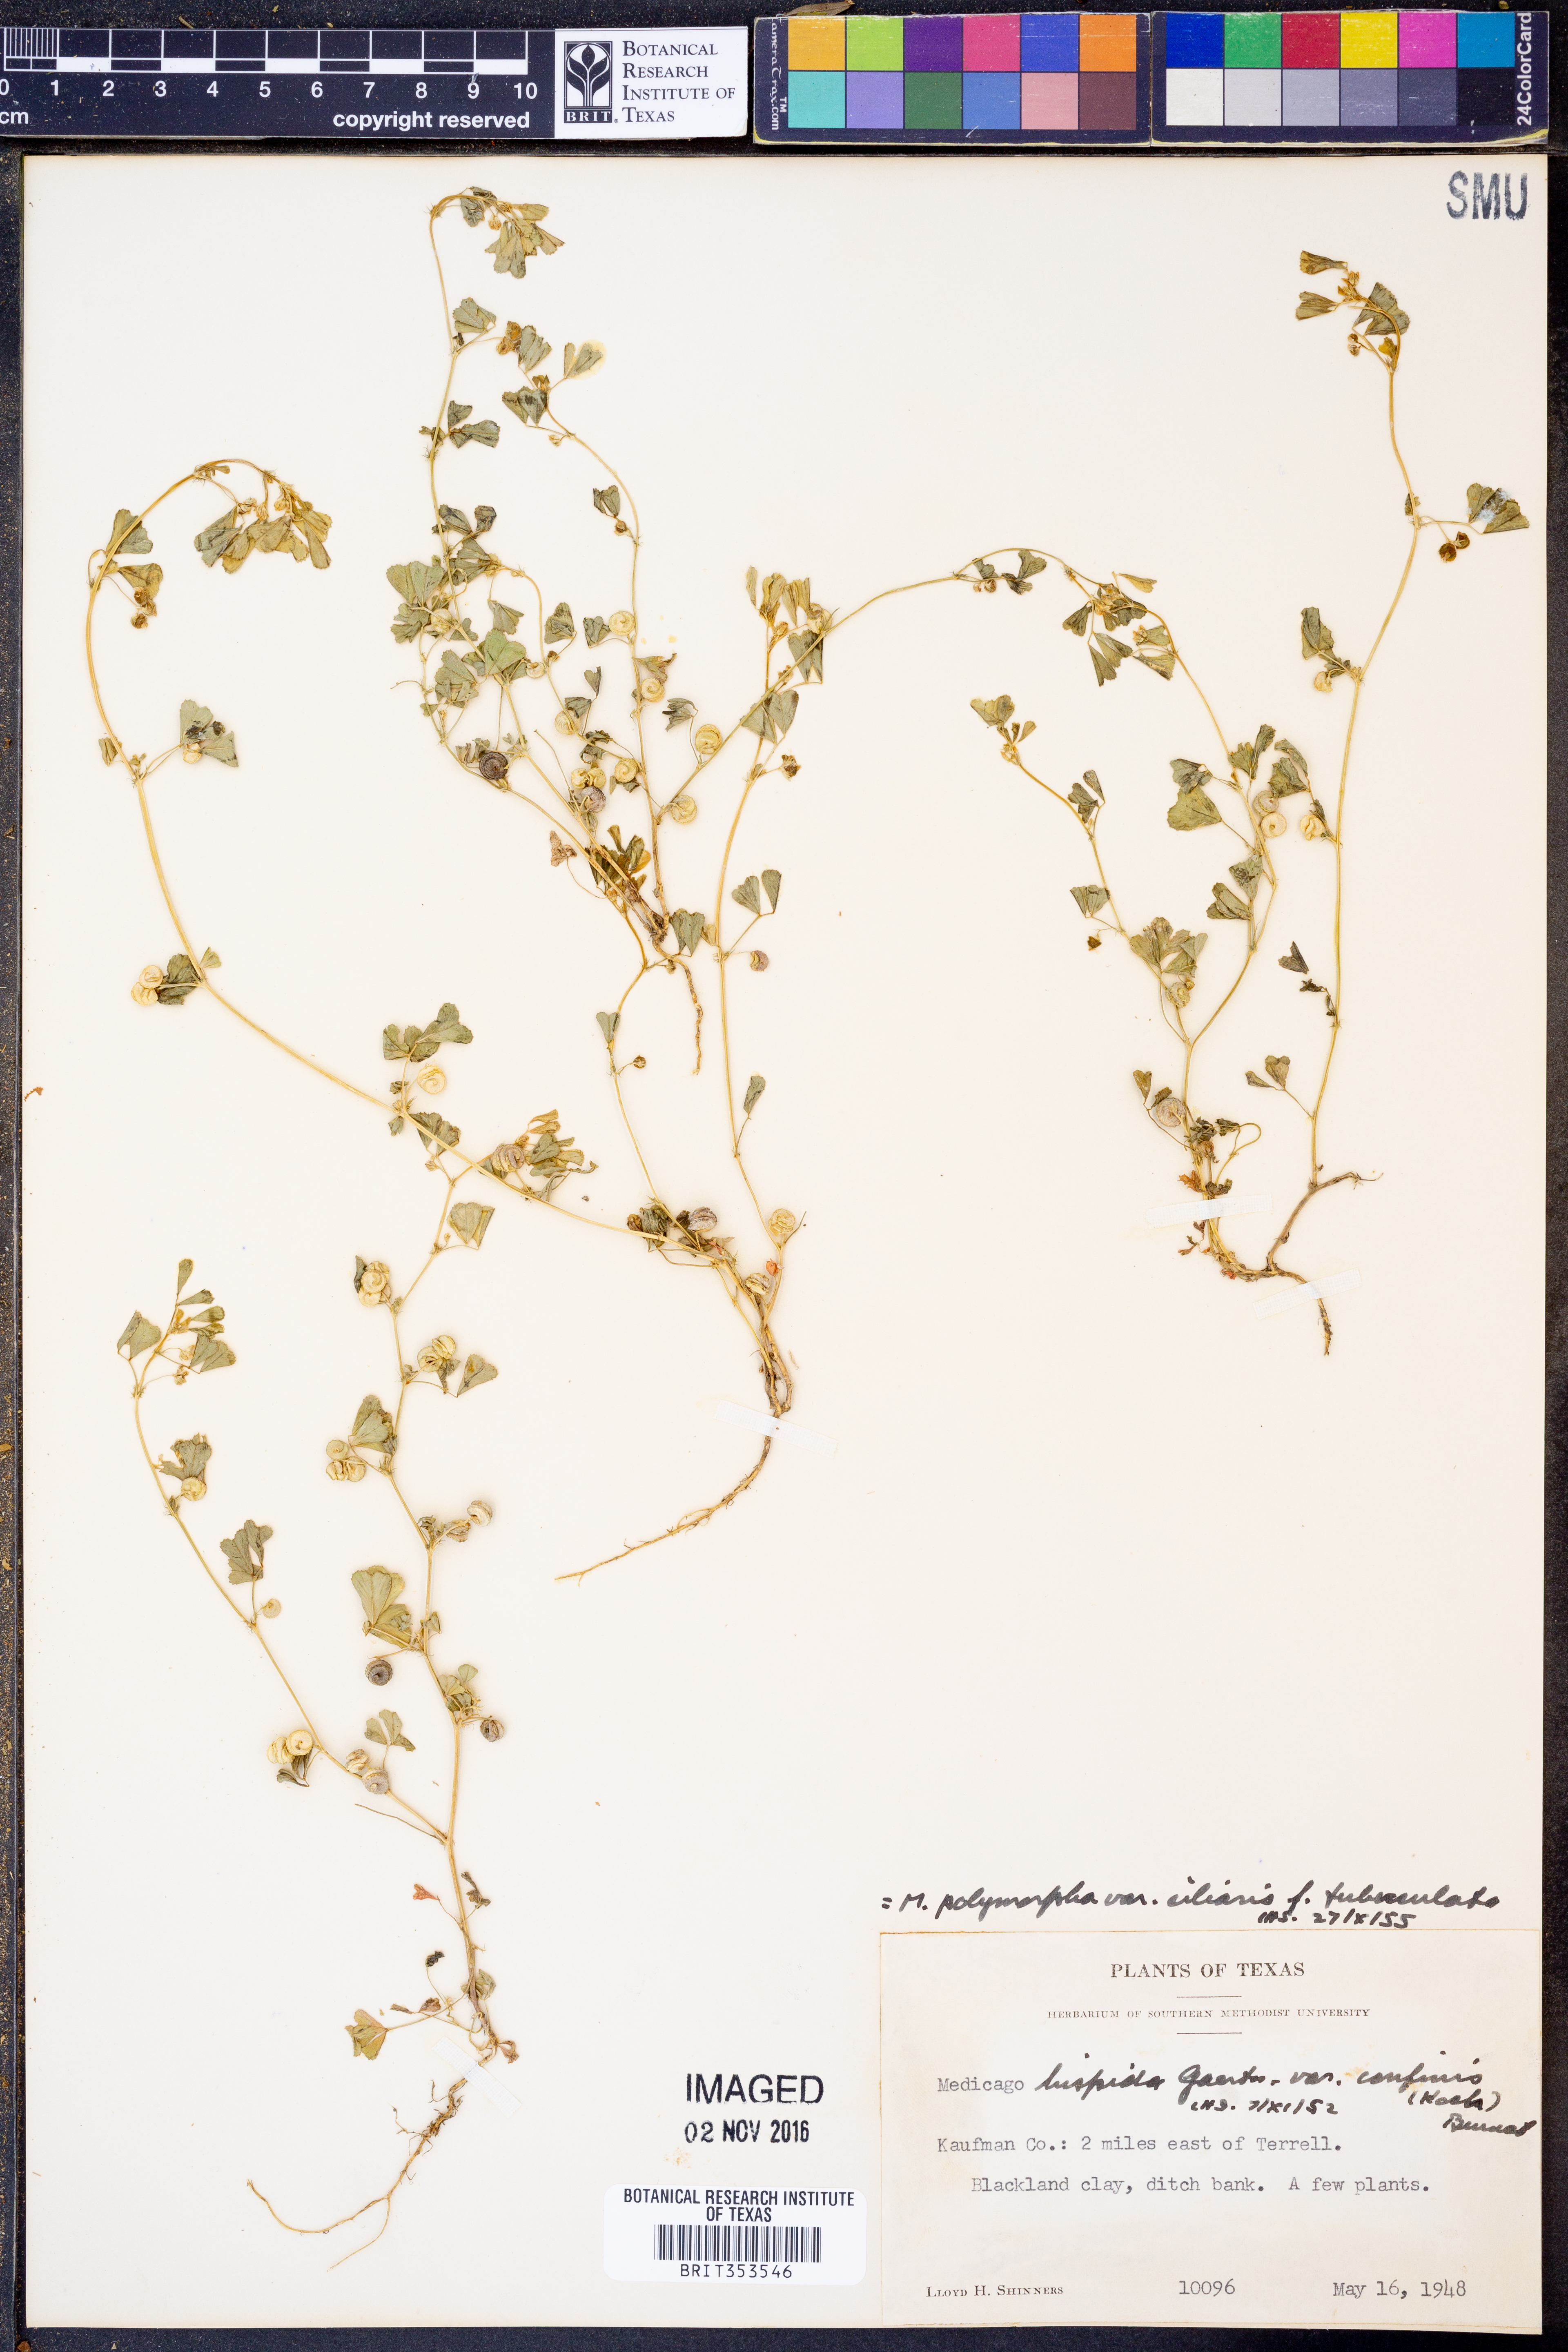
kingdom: Plantae
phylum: Tracheophyta
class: Magnoliopsida
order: Fabales
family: Fabaceae
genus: Medicago
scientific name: Medicago polymorpha
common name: Burclover
